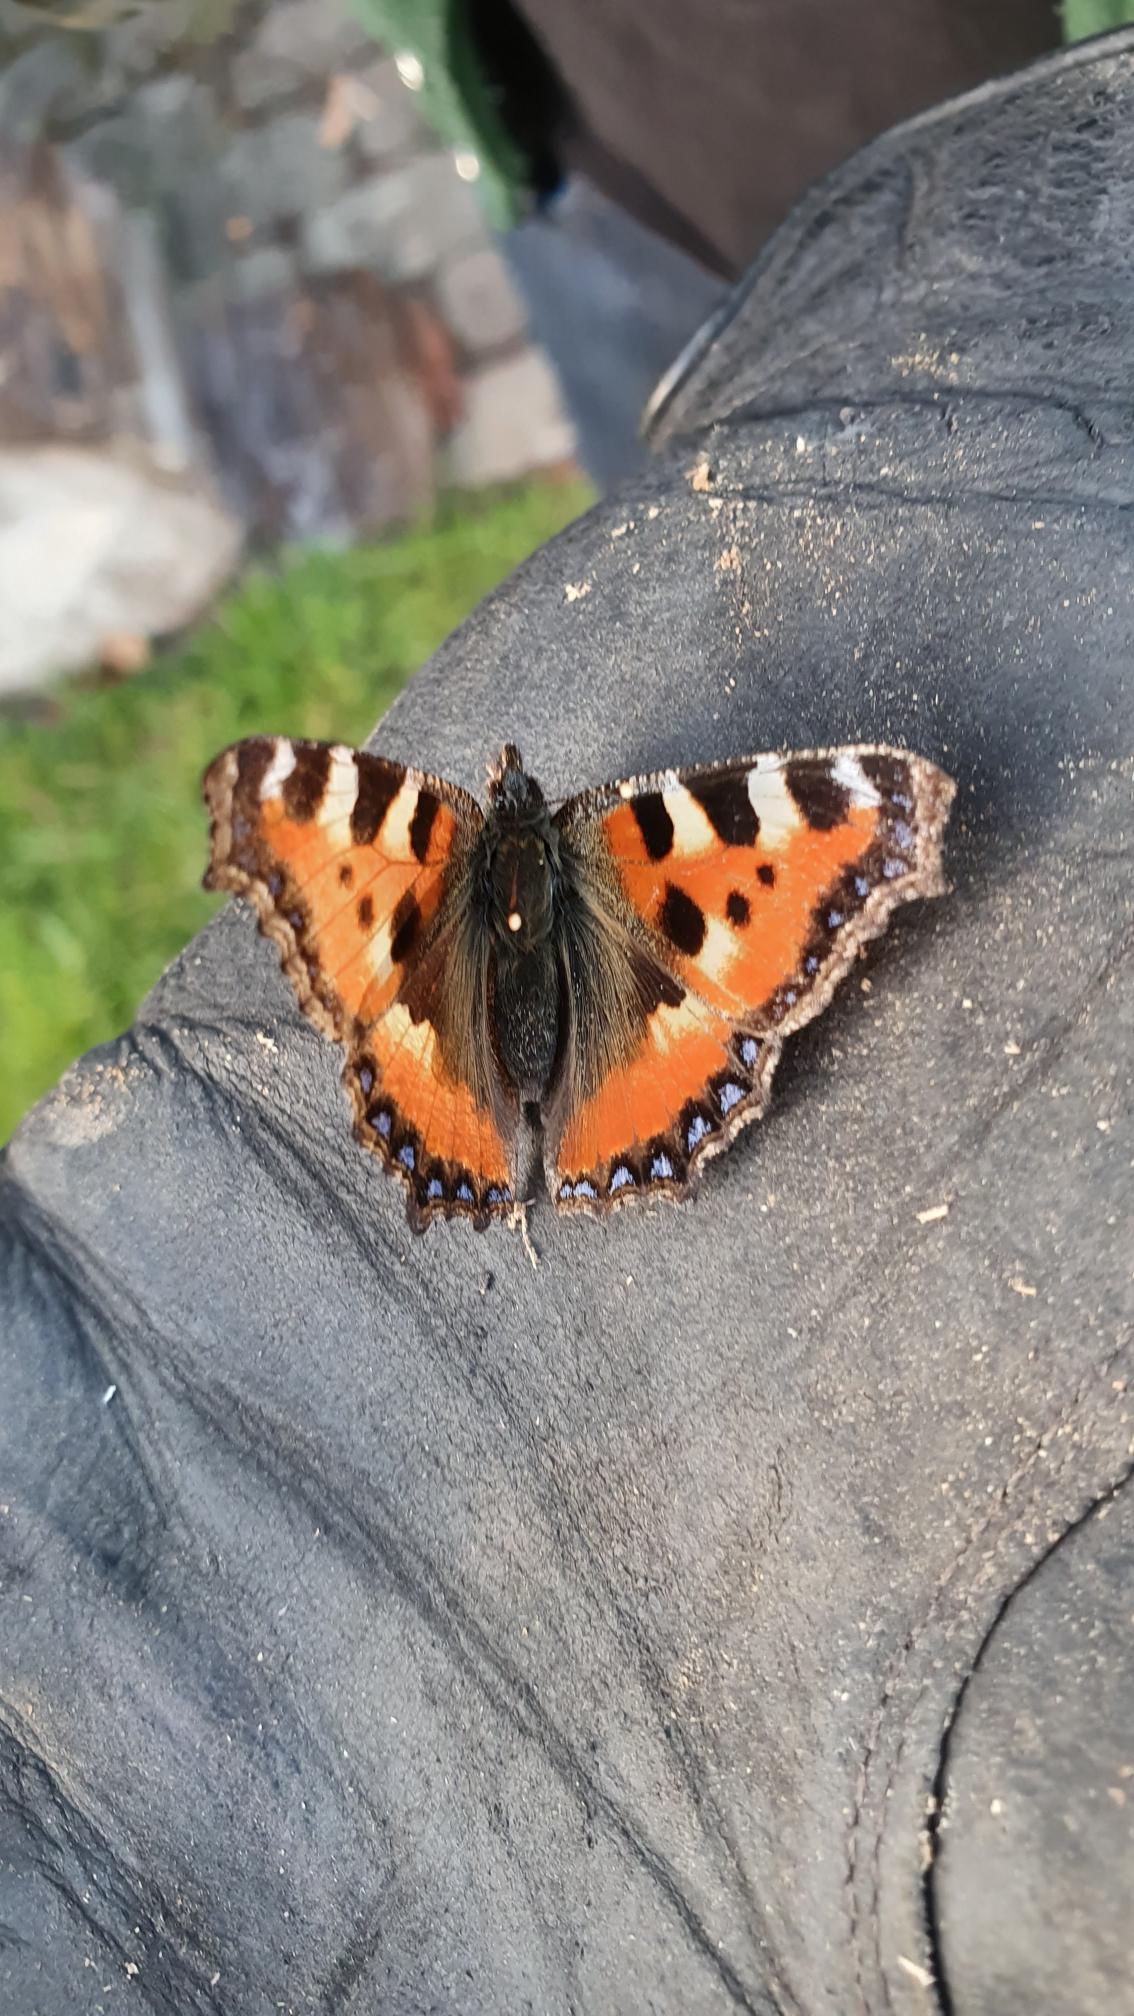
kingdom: Animalia
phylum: Arthropoda
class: Insecta
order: Lepidoptera
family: Nymphalidae
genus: Aglais
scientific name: Aglais urticae
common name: Nældens takvinge
